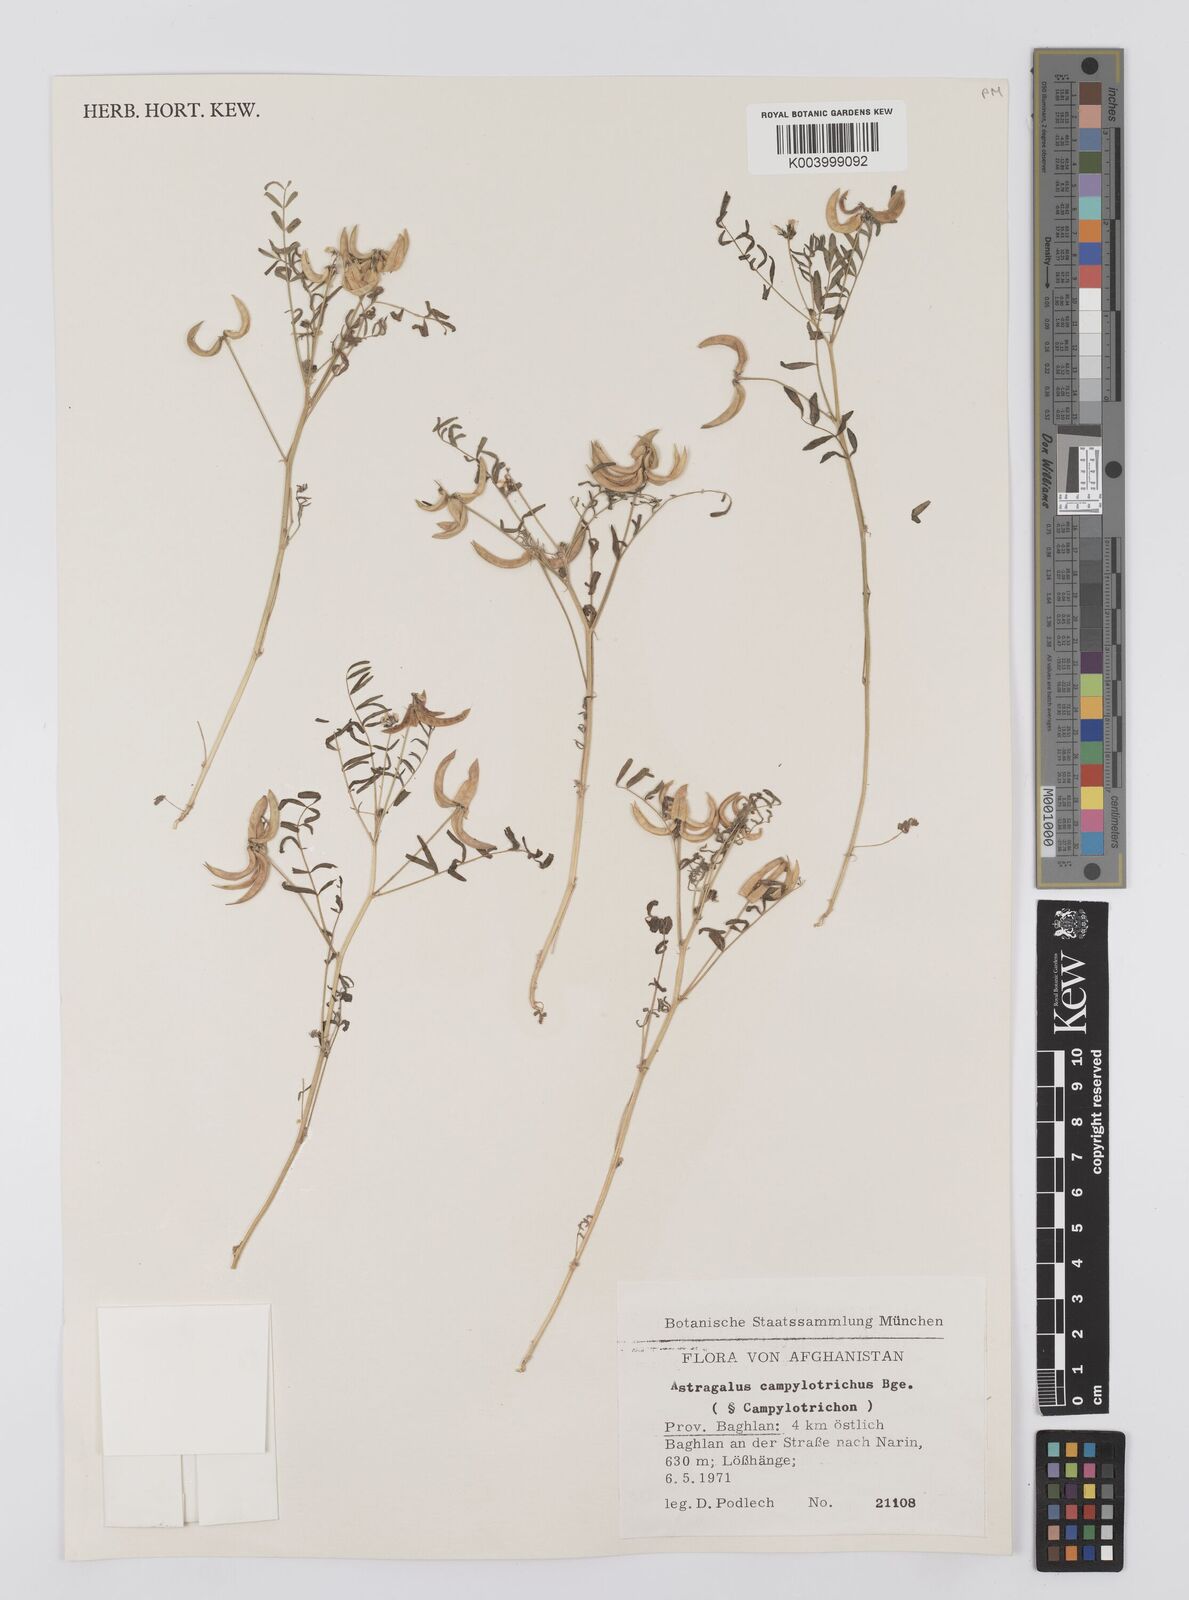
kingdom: Plantae
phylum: Tracheophyta
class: Magnoliopsida
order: Fabales
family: Fabaceae
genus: Astragalus
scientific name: Astragalus campylotrichus
